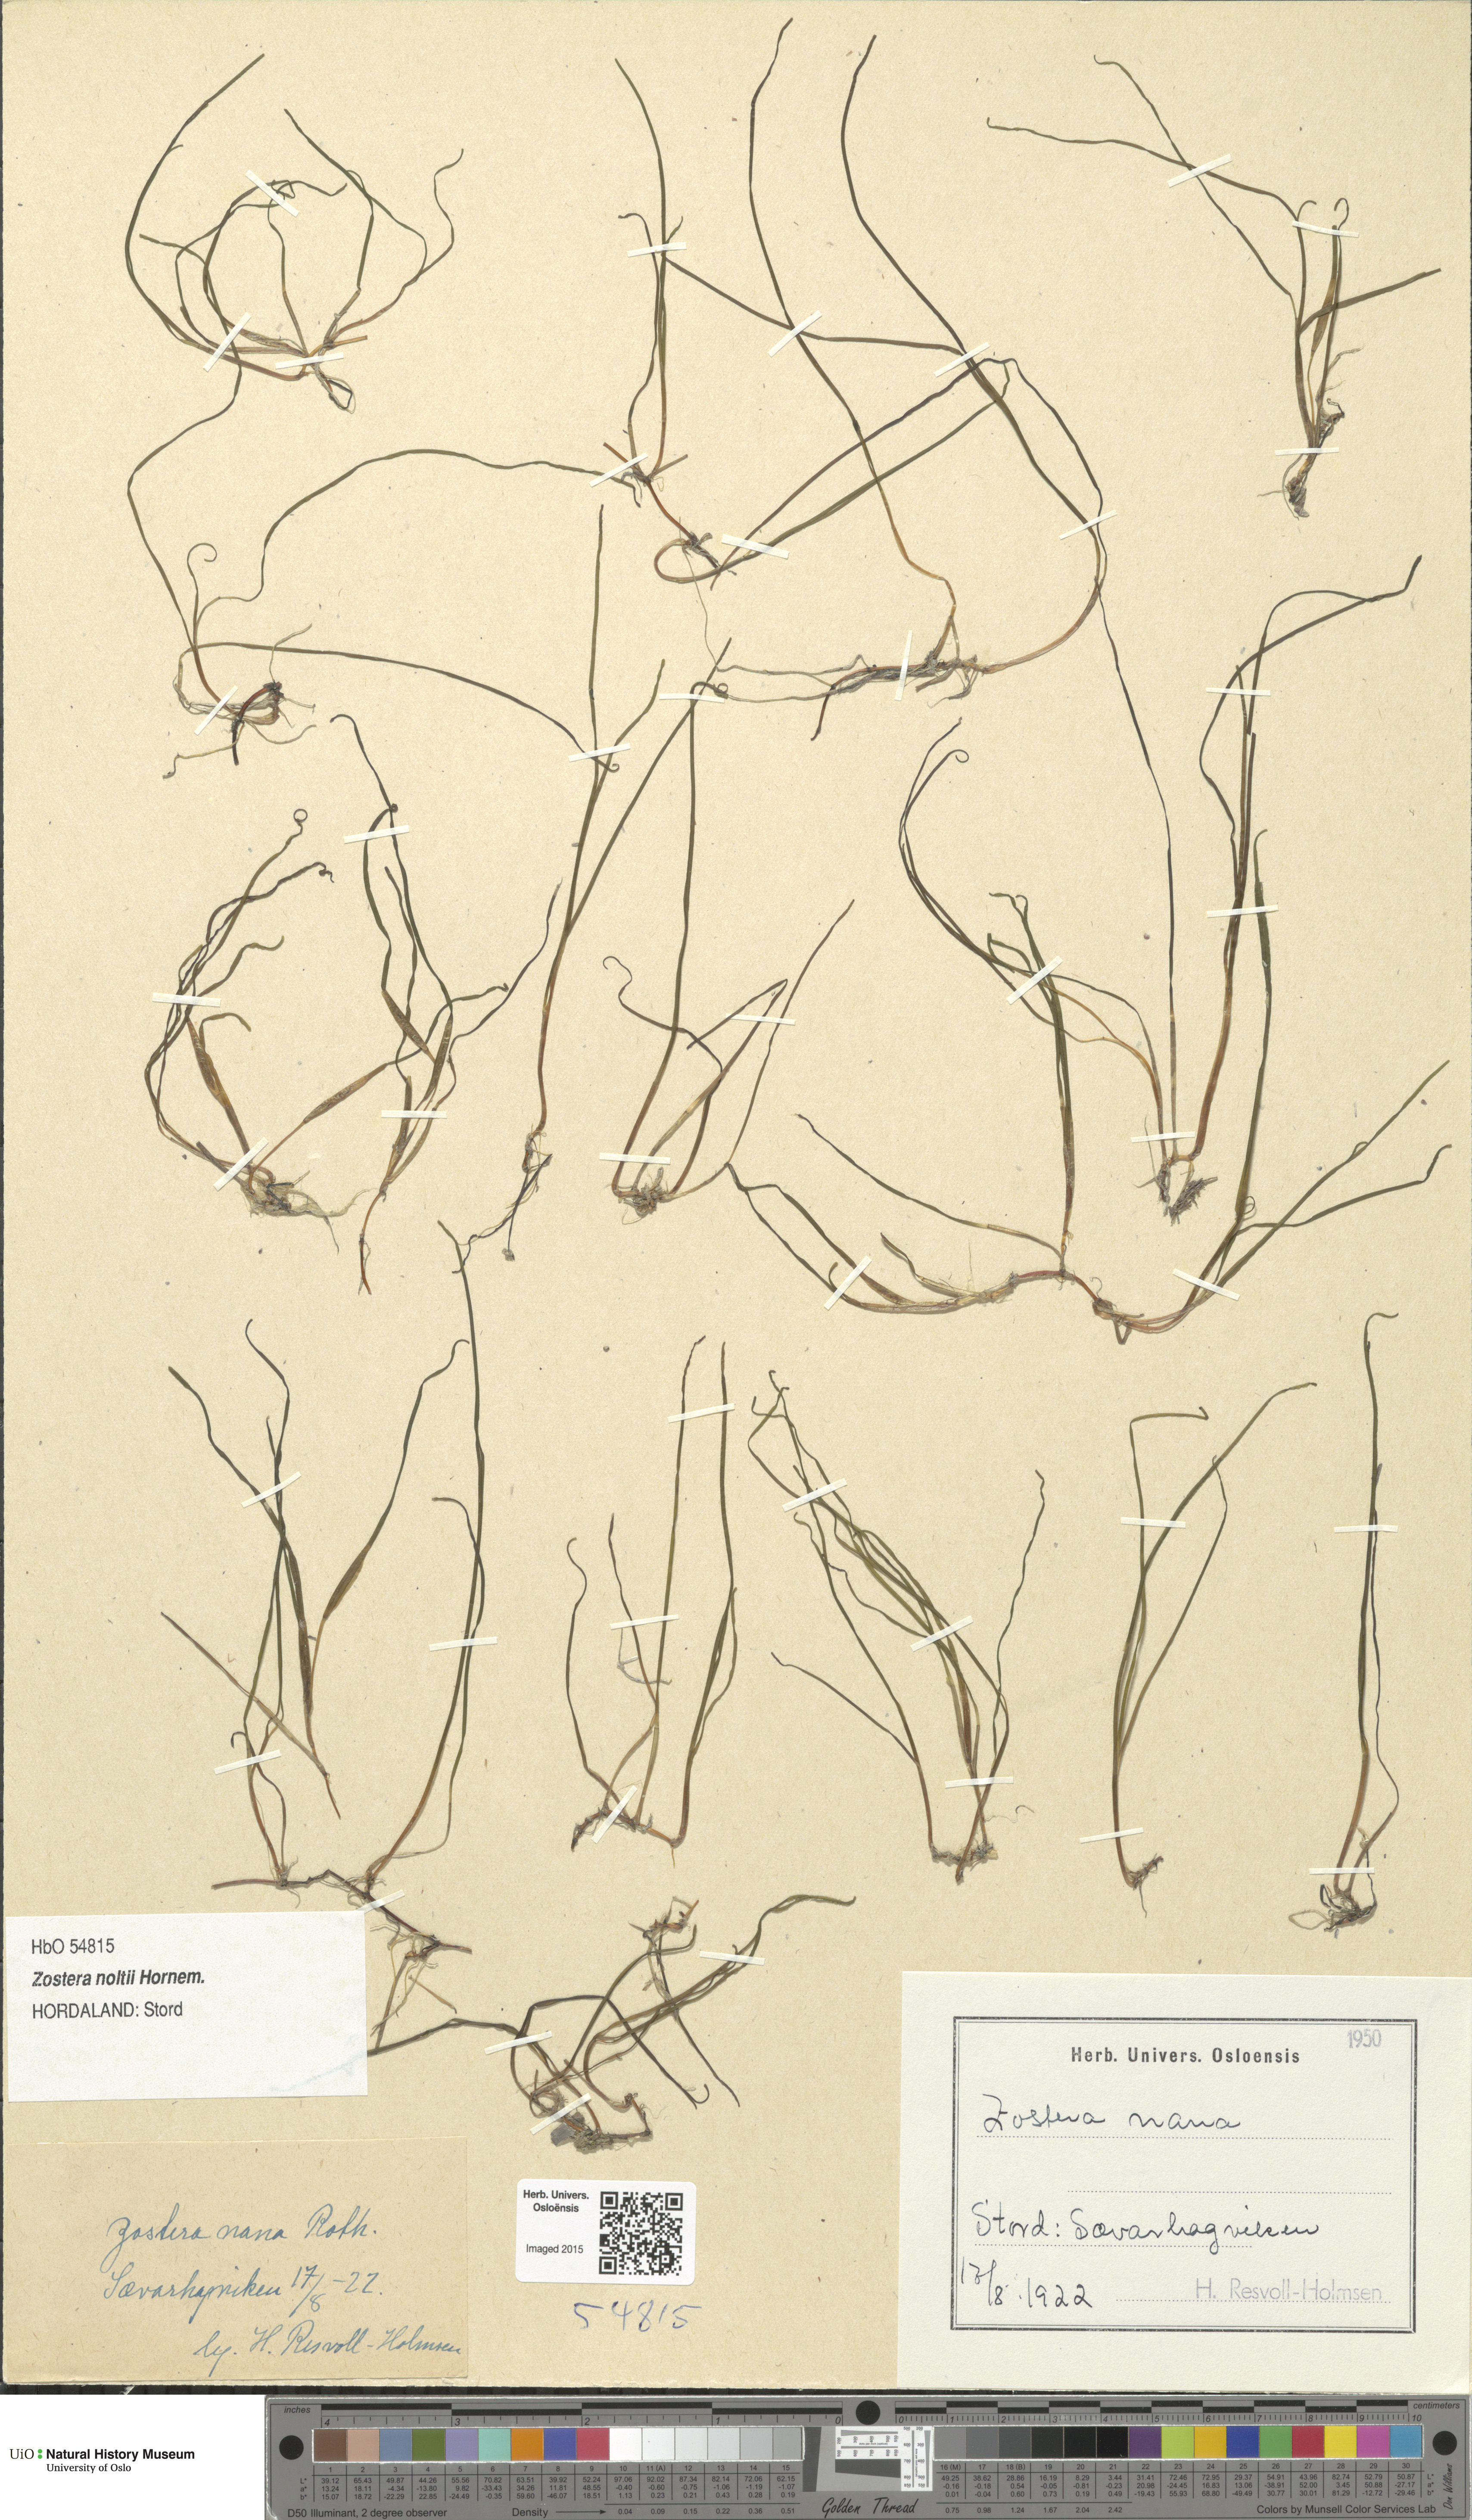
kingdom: Plantae
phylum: Tracheophyta
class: Liliopsida
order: Alismatales
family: Zosteraceae
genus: Zostera
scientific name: Zostera noltii
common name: Dwarf eelgrass
